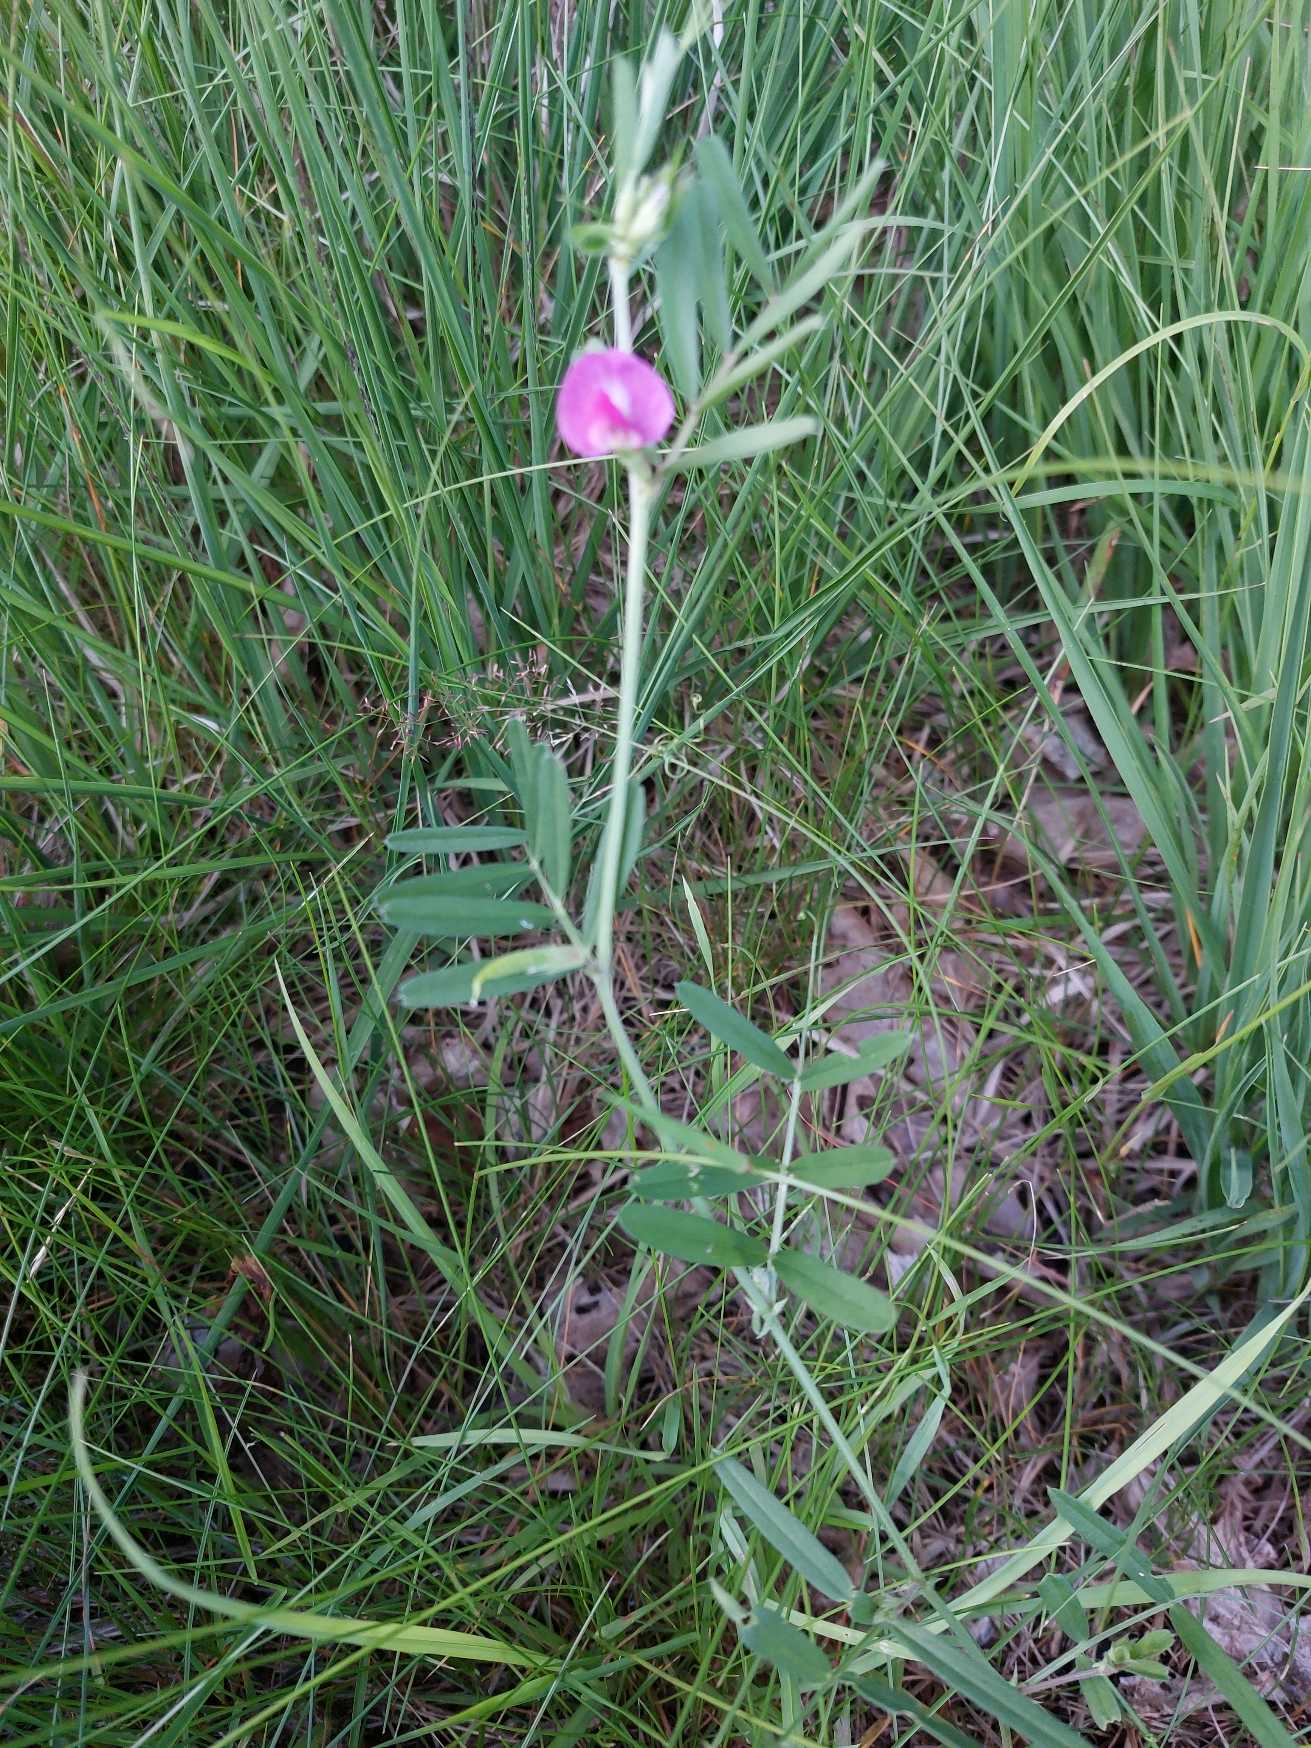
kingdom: Plantae
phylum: Tracheophyta
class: Magnoliopsida
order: Fabales
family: Fabaceae
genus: Vicia
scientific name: Vicia sativa
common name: Foder-vikke
